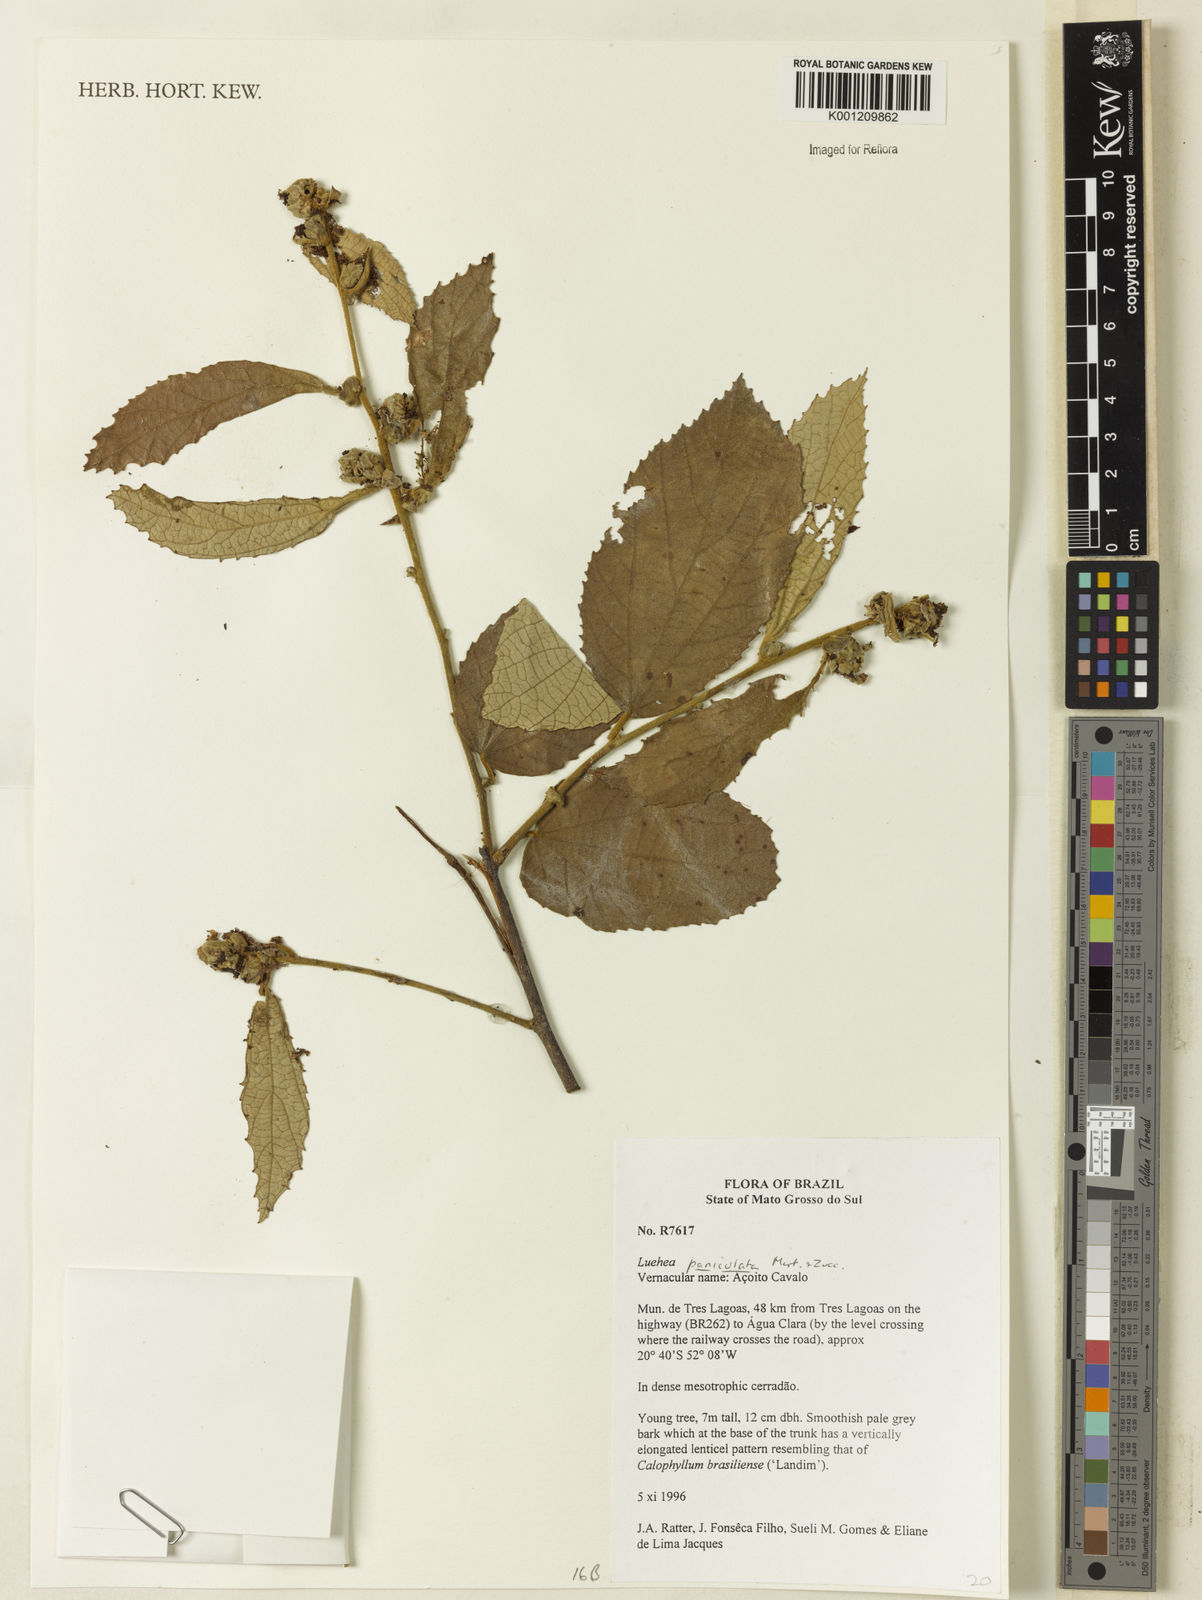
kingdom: Plantae
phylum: Tracheophyta
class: Magnoliopsida
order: Malvales
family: Malvaceae
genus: Luehea
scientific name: Luehea paniculata
